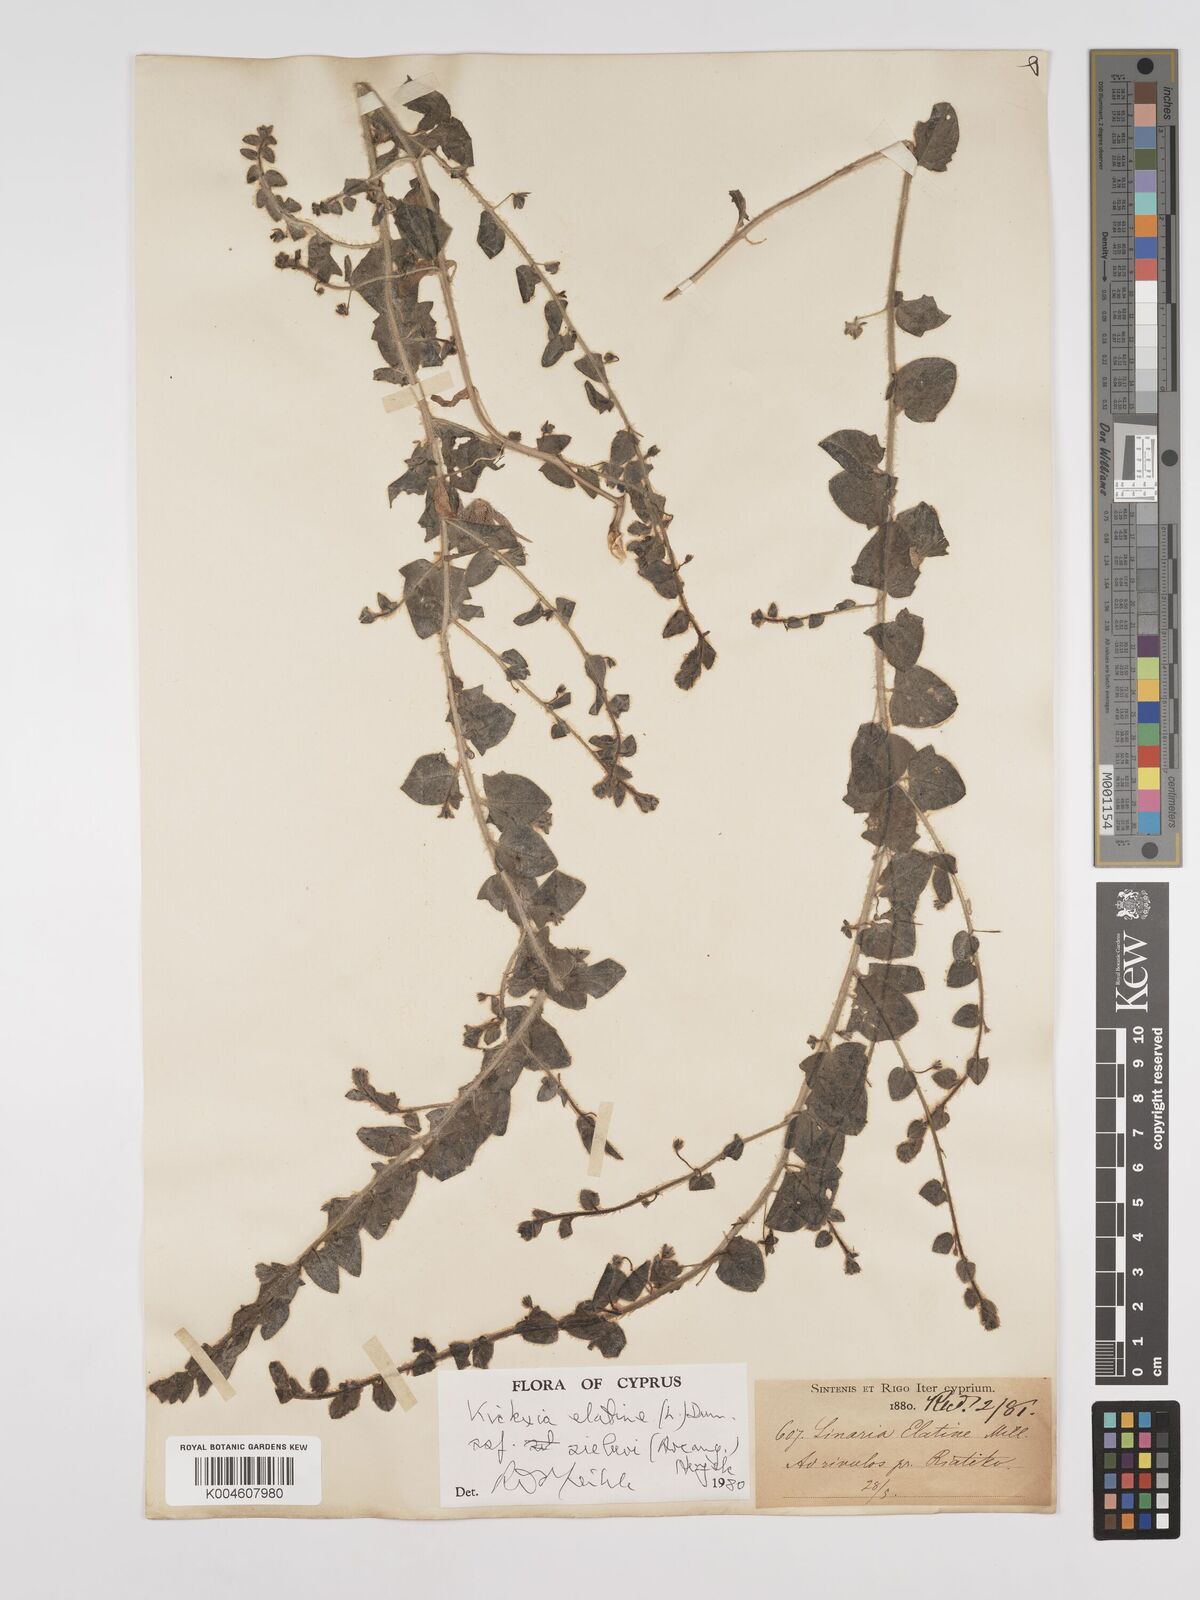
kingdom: Plantae
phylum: Tracheophyta
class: Magnoliopsida
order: Lamiales
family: Plantaginaceae
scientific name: Plantaginaceae
